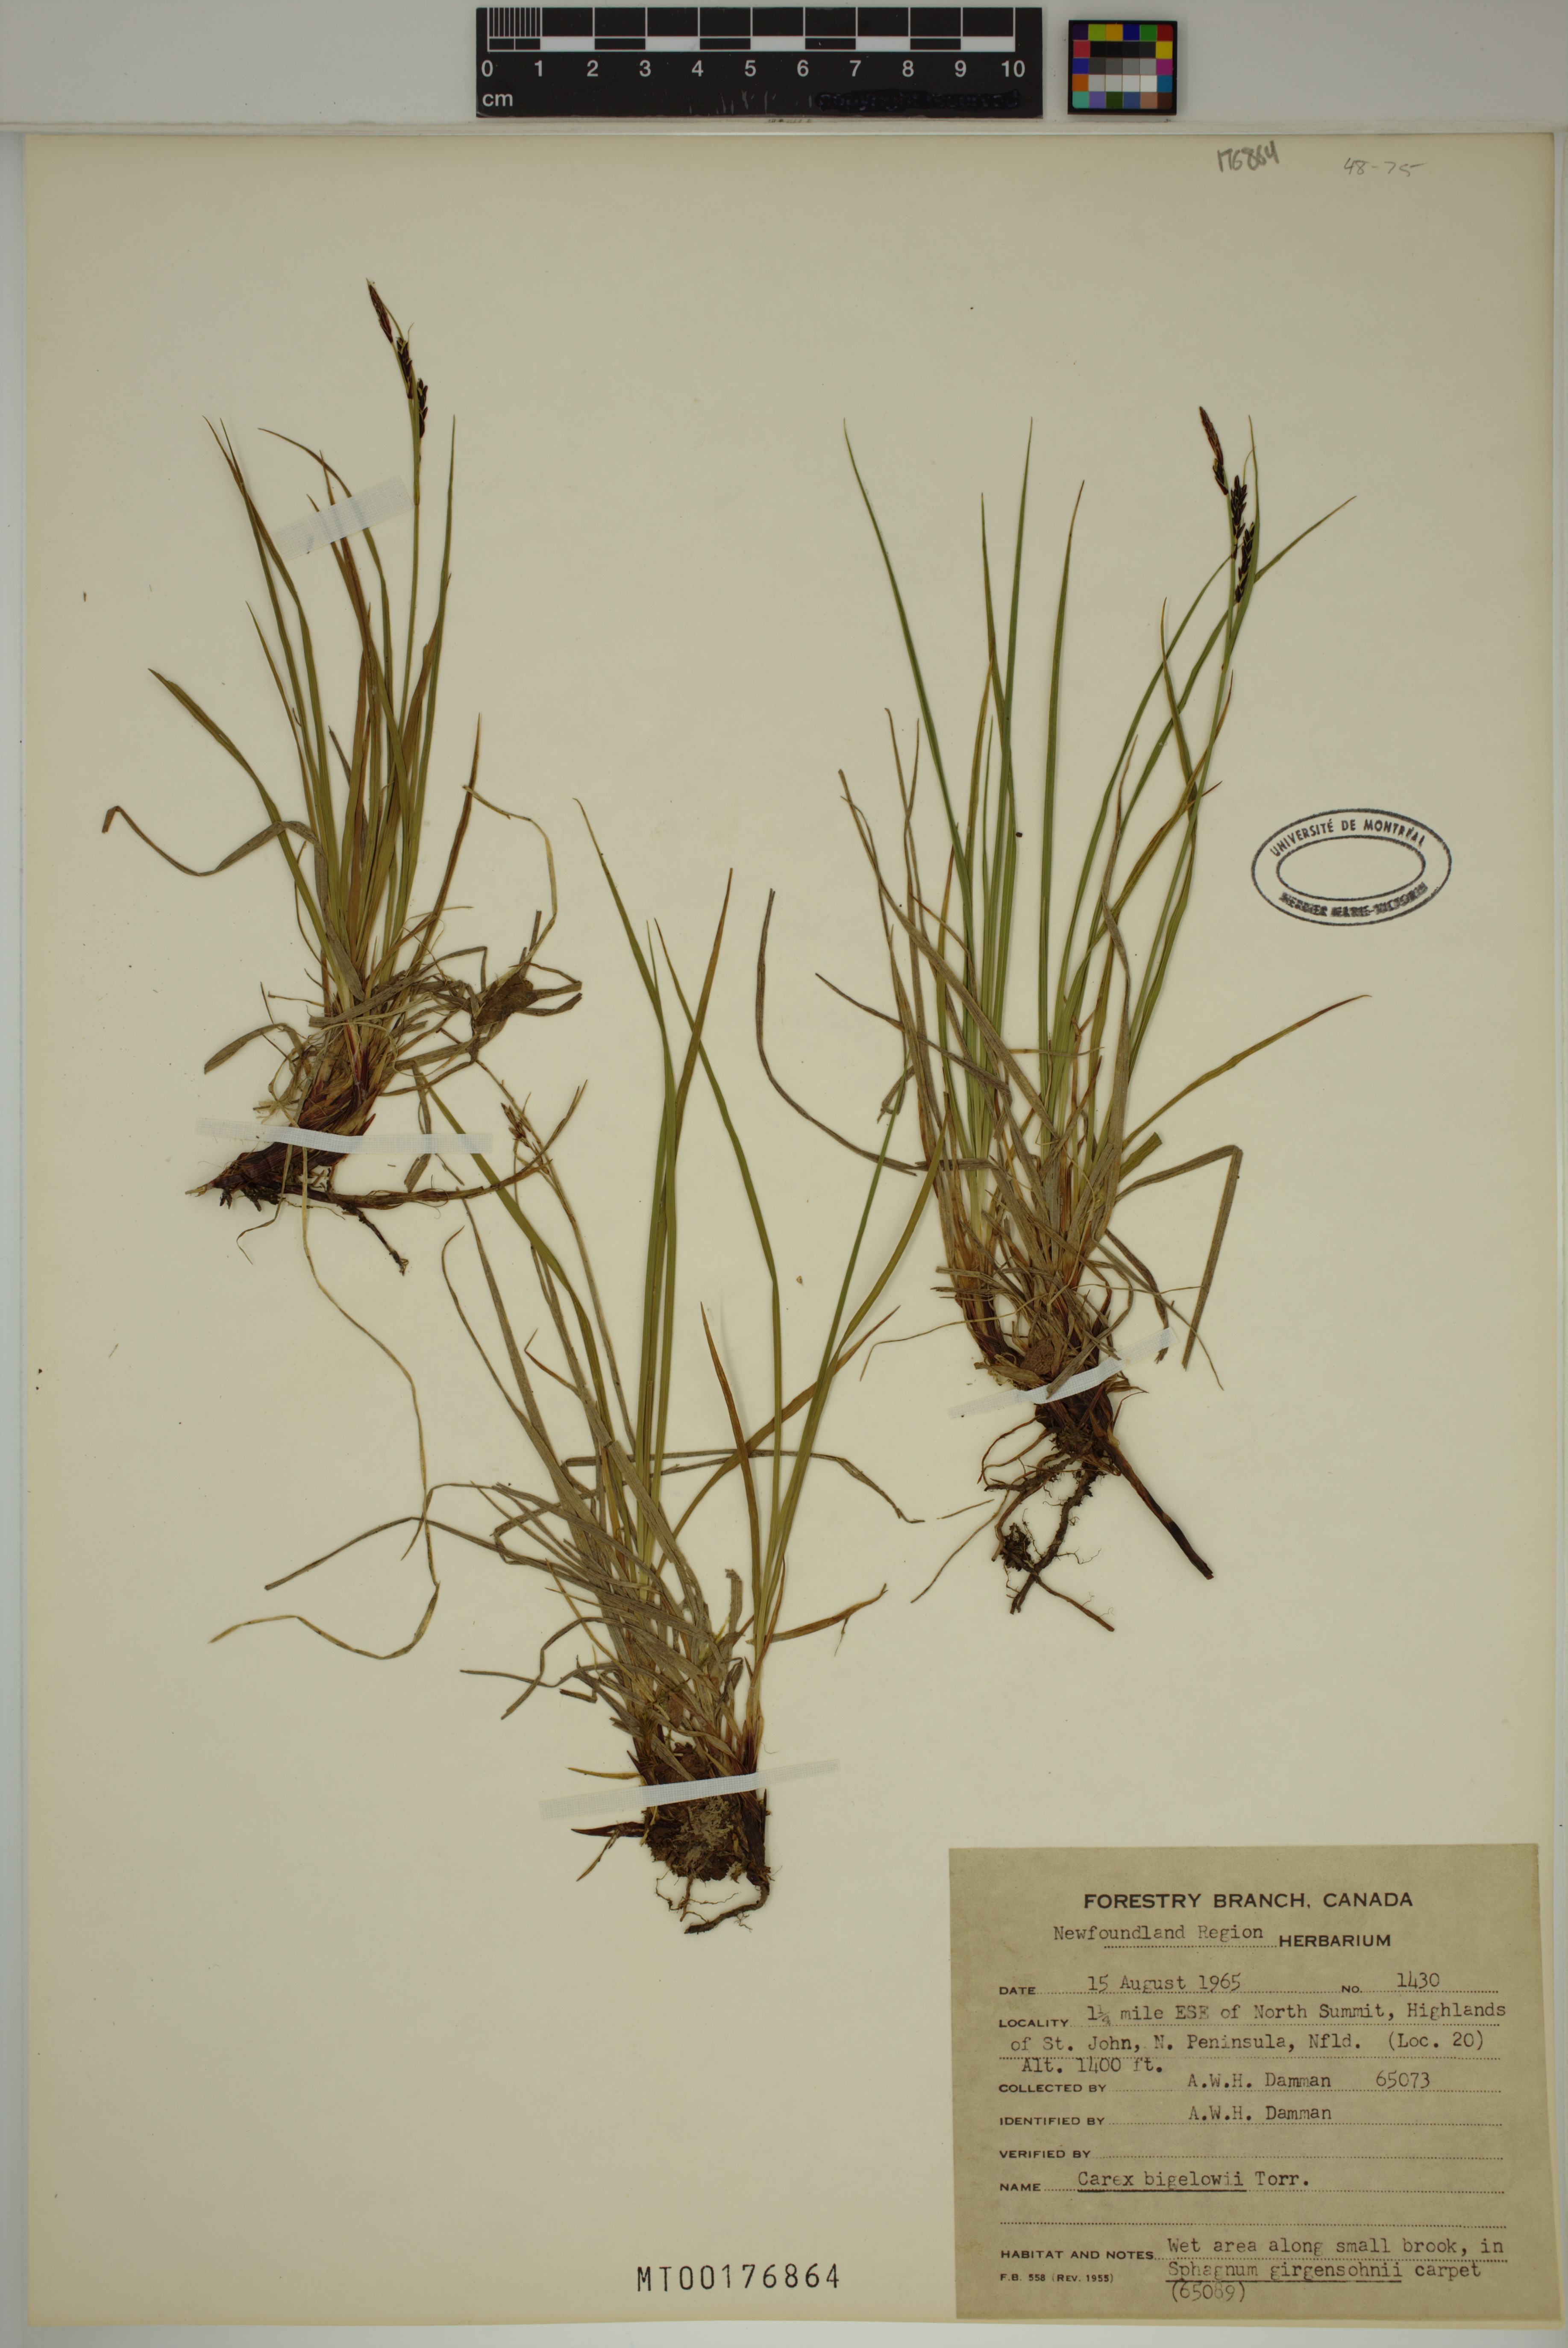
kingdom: Plantae
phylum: Tracheophyta
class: Liliopsida
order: Poales
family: Cyperaceae
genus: Carex
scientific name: Carex bigelowii
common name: Stiff sedge
